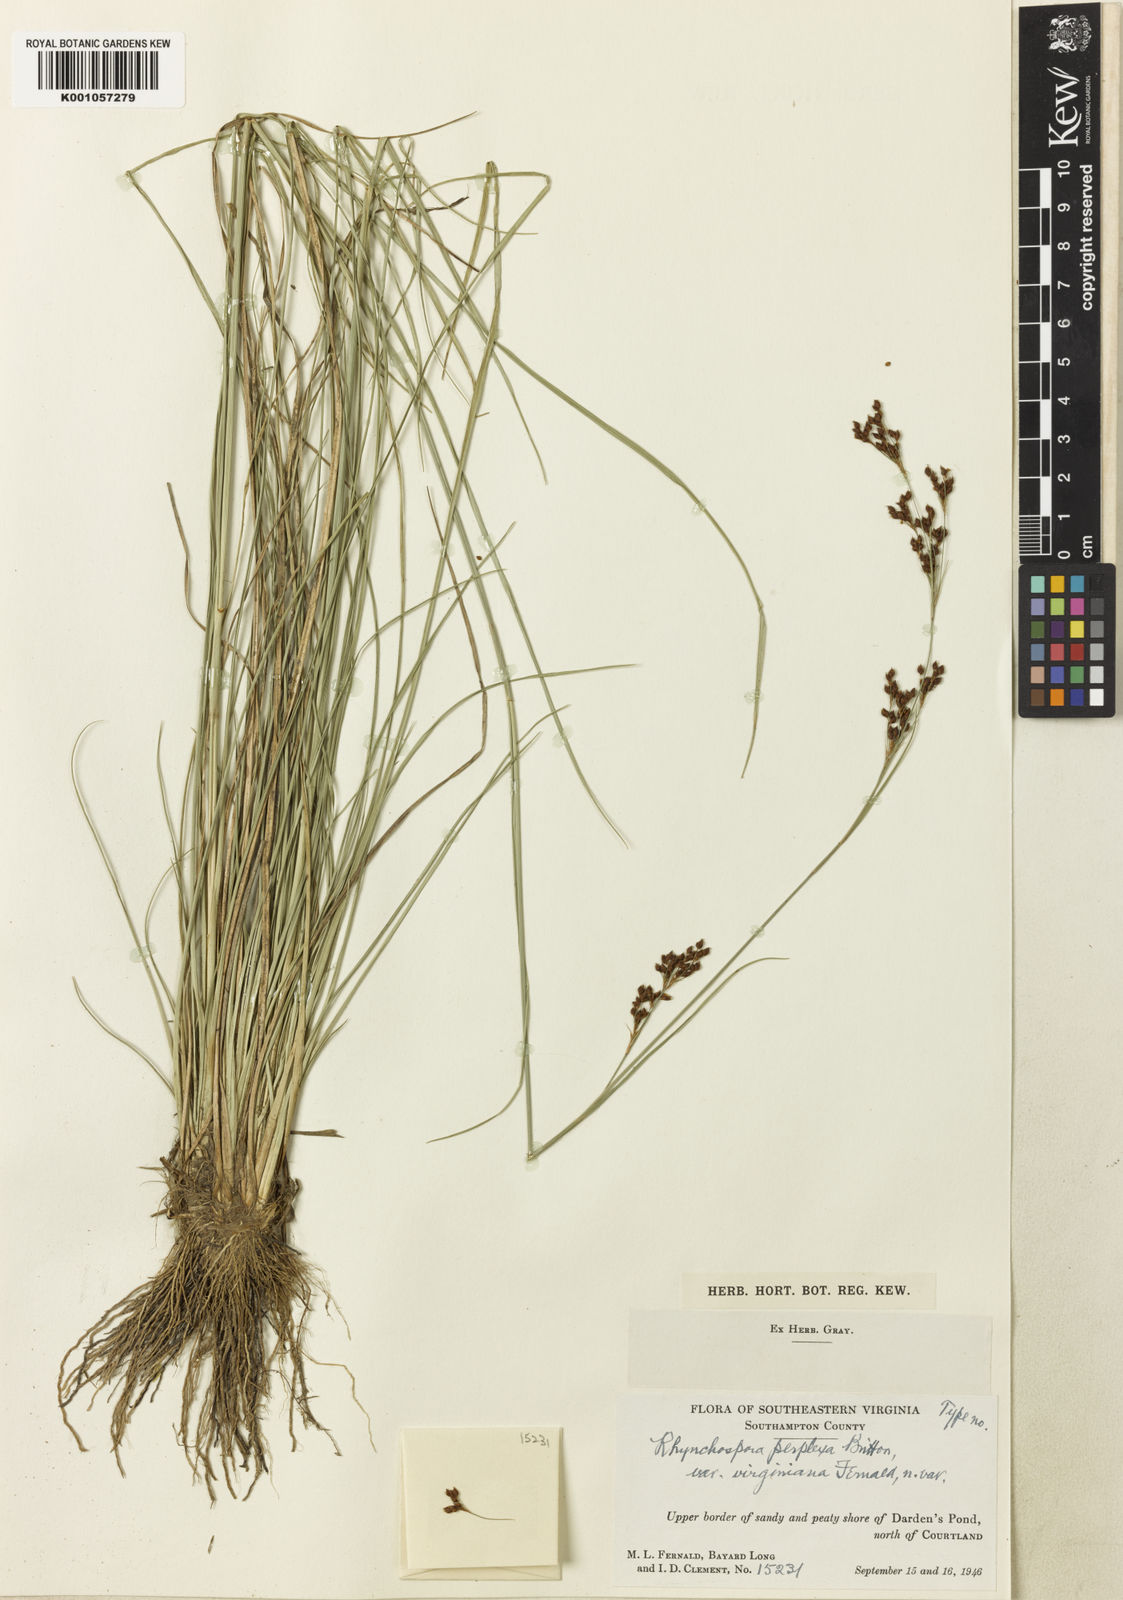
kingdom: Plantae
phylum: Tracheophyta
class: Liliopsida
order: Poales
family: Cyperaceae
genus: Rhynchospora
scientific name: Rhynchospora perplexa
